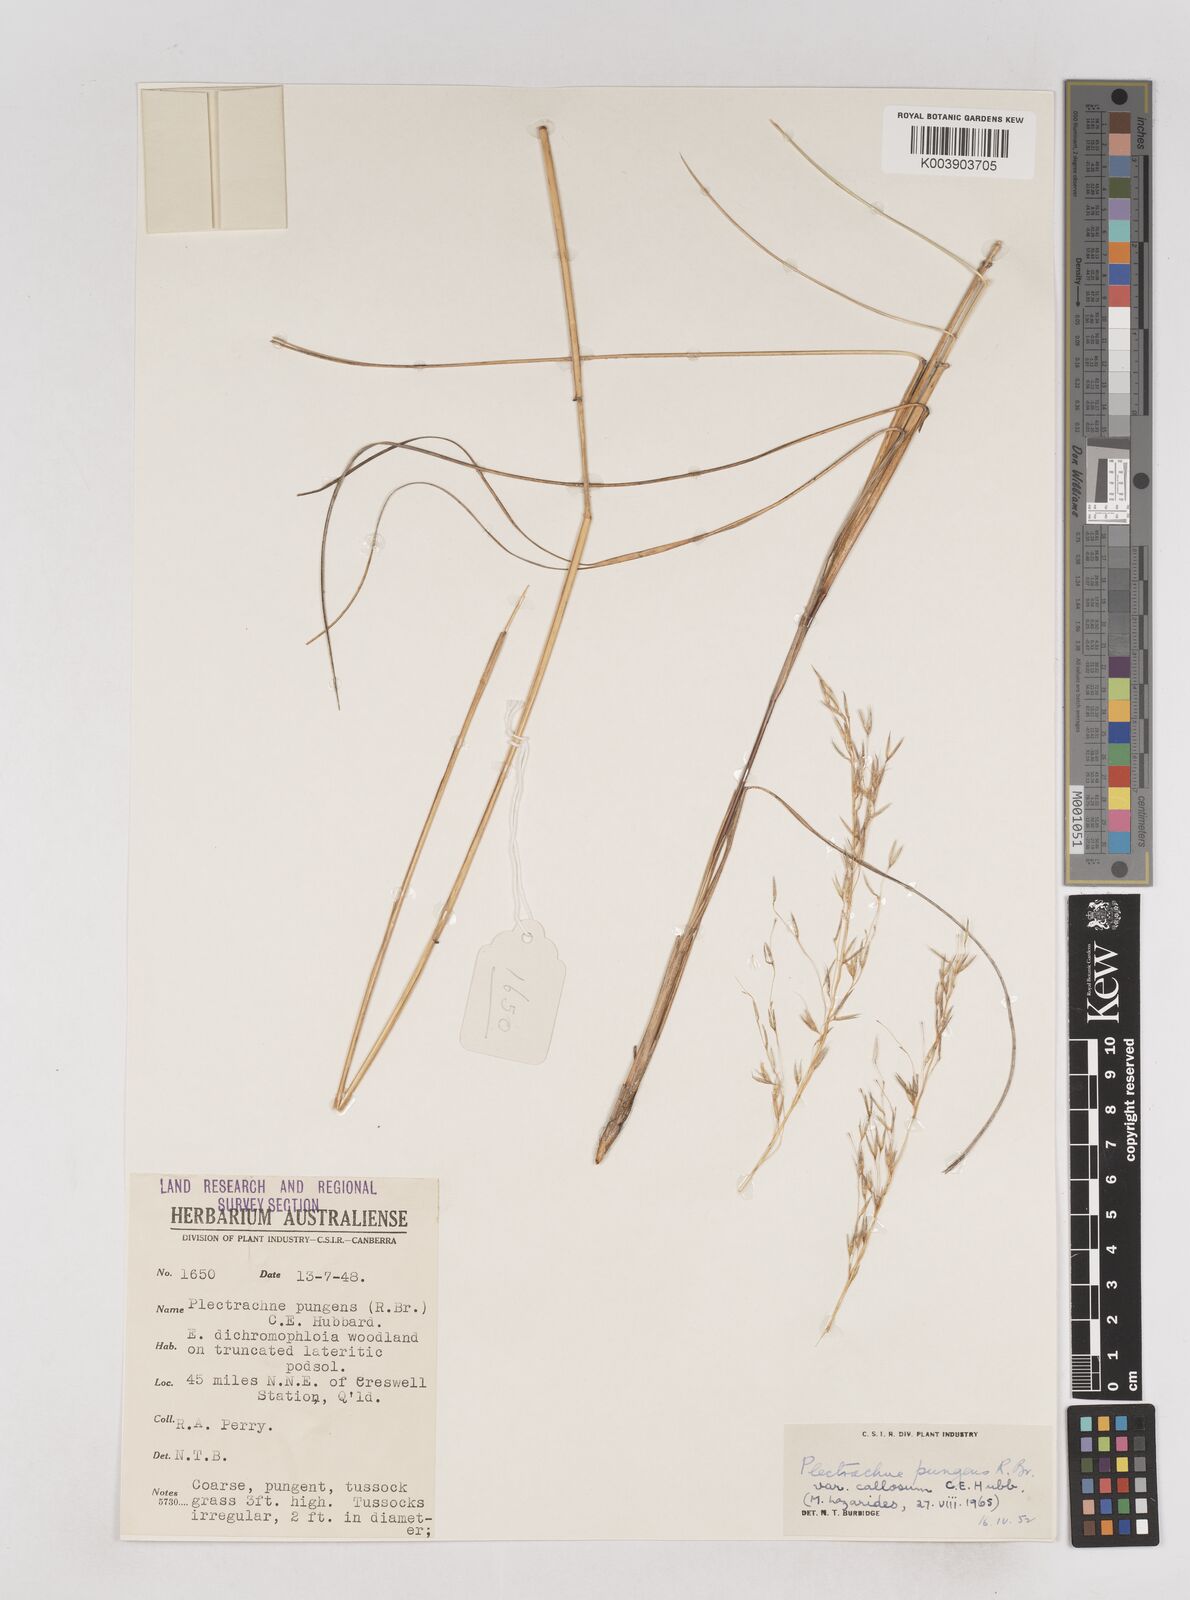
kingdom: Plantae
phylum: Tracheophyta
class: Liliopsida
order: Poales
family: Poaceae
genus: Triodia
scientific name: Triodia bitextura
